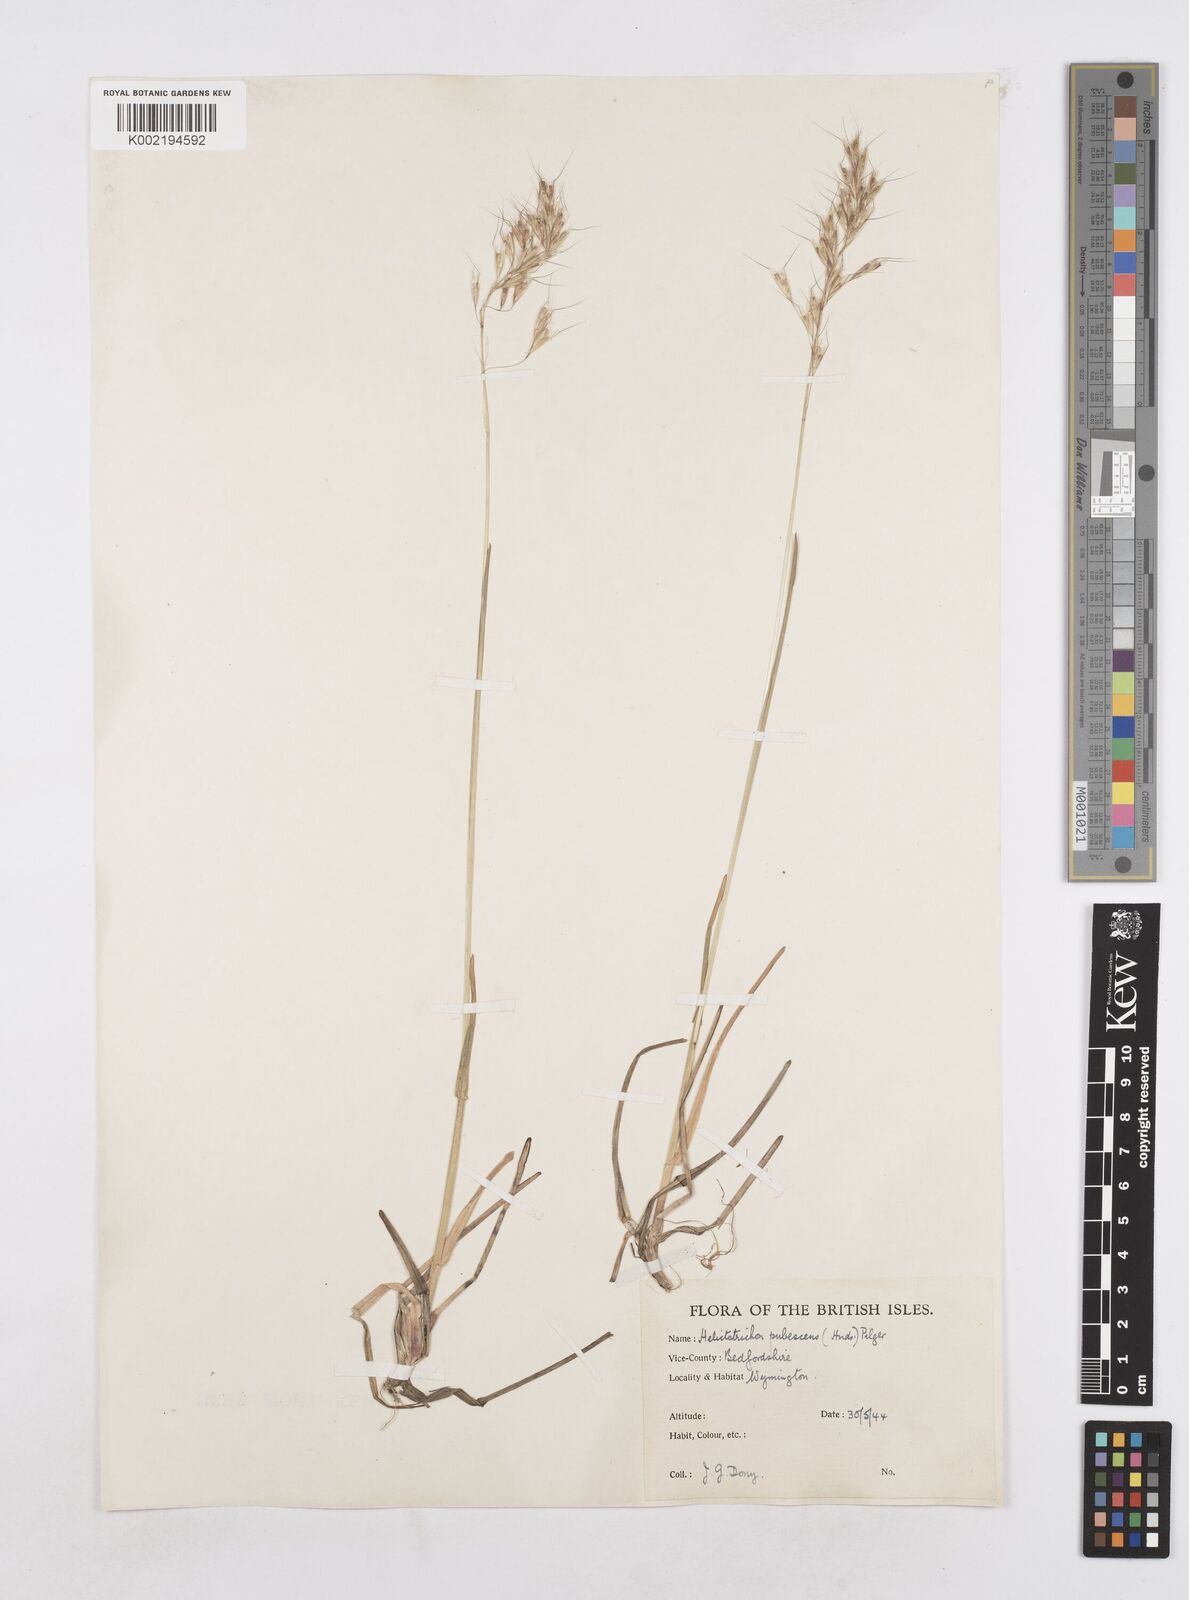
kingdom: Plantae
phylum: Tracheophyta
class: Liliopsida
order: Poales
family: Poaceae
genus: Avenula
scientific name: Avenula pubescens
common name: Downy alpine oatgrass
